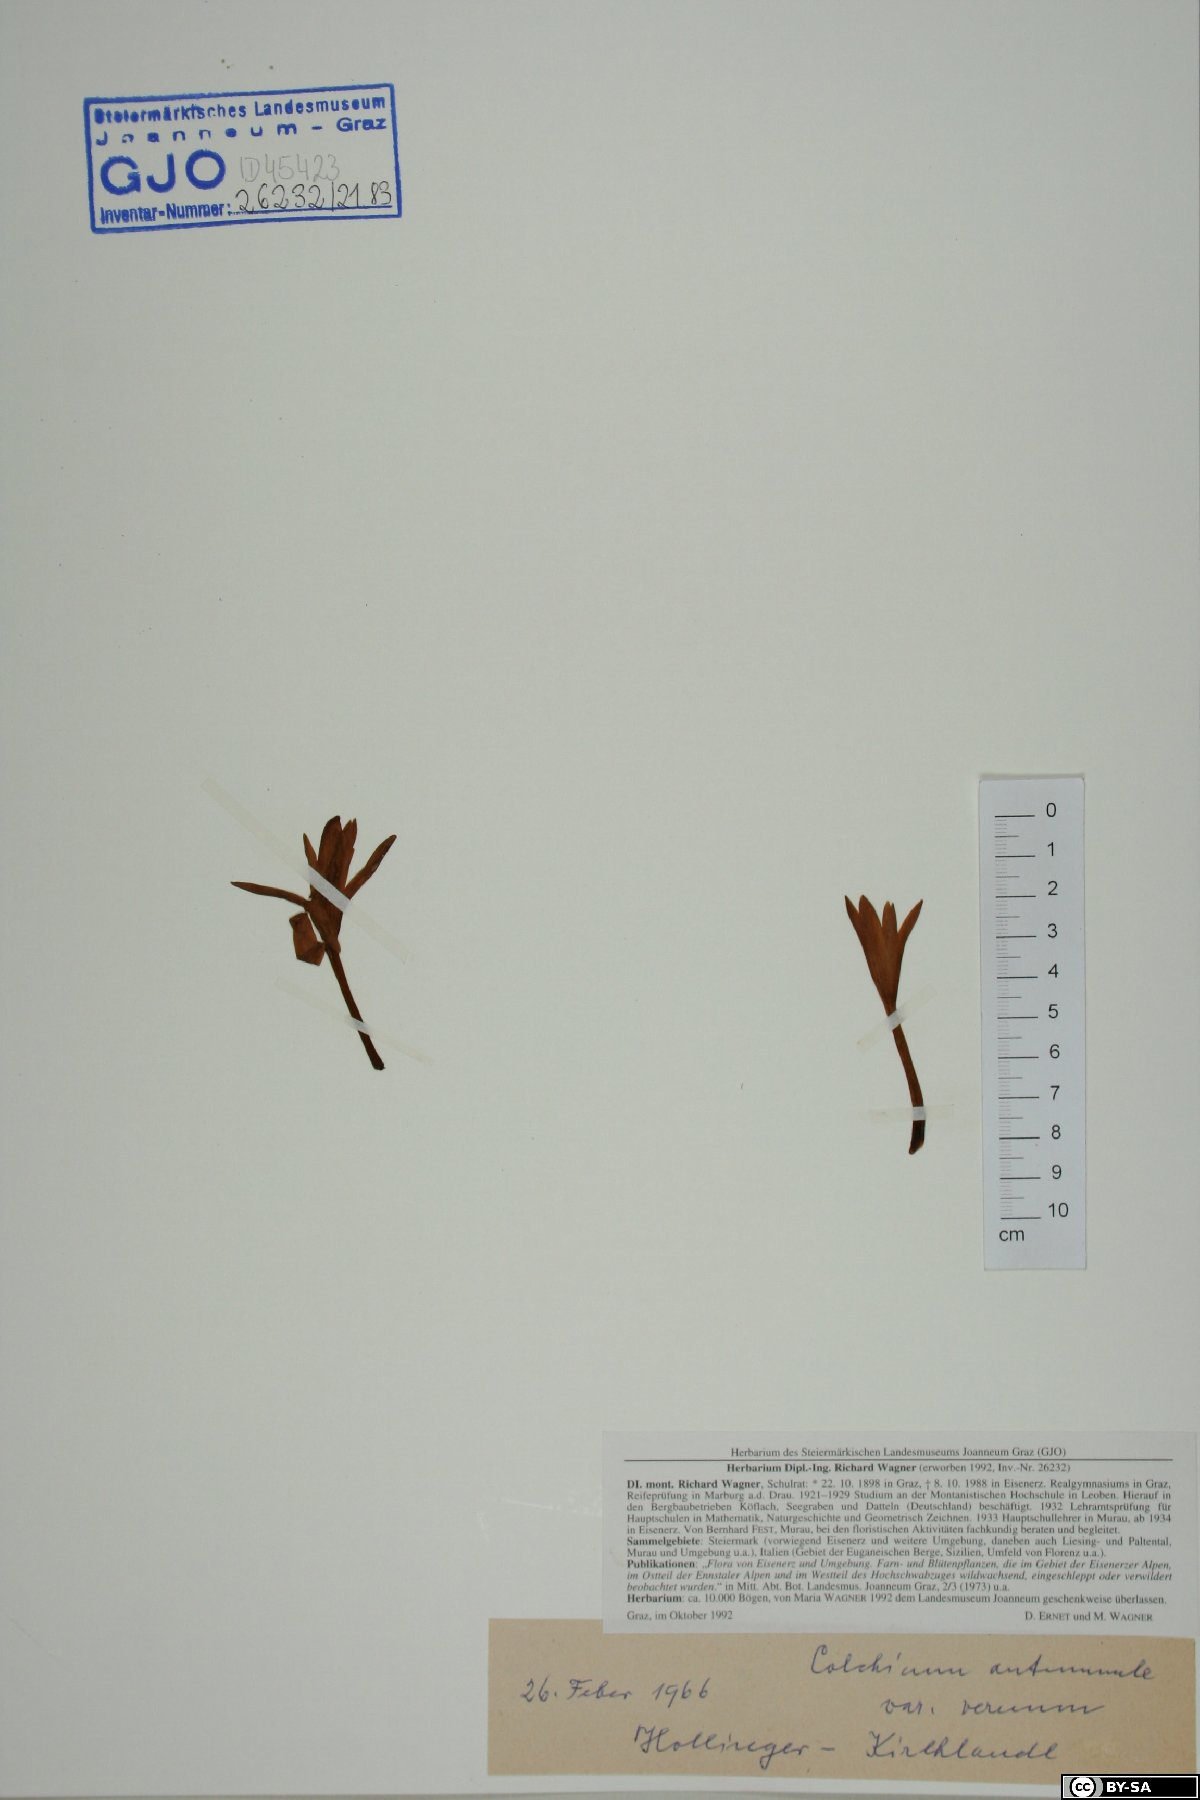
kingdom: Plantae
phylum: Tracheophyta
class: Liliopsida
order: Liliales
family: Colchicaceae
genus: Colchicum
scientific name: Colchicum autumnale
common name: Autumn crocus
